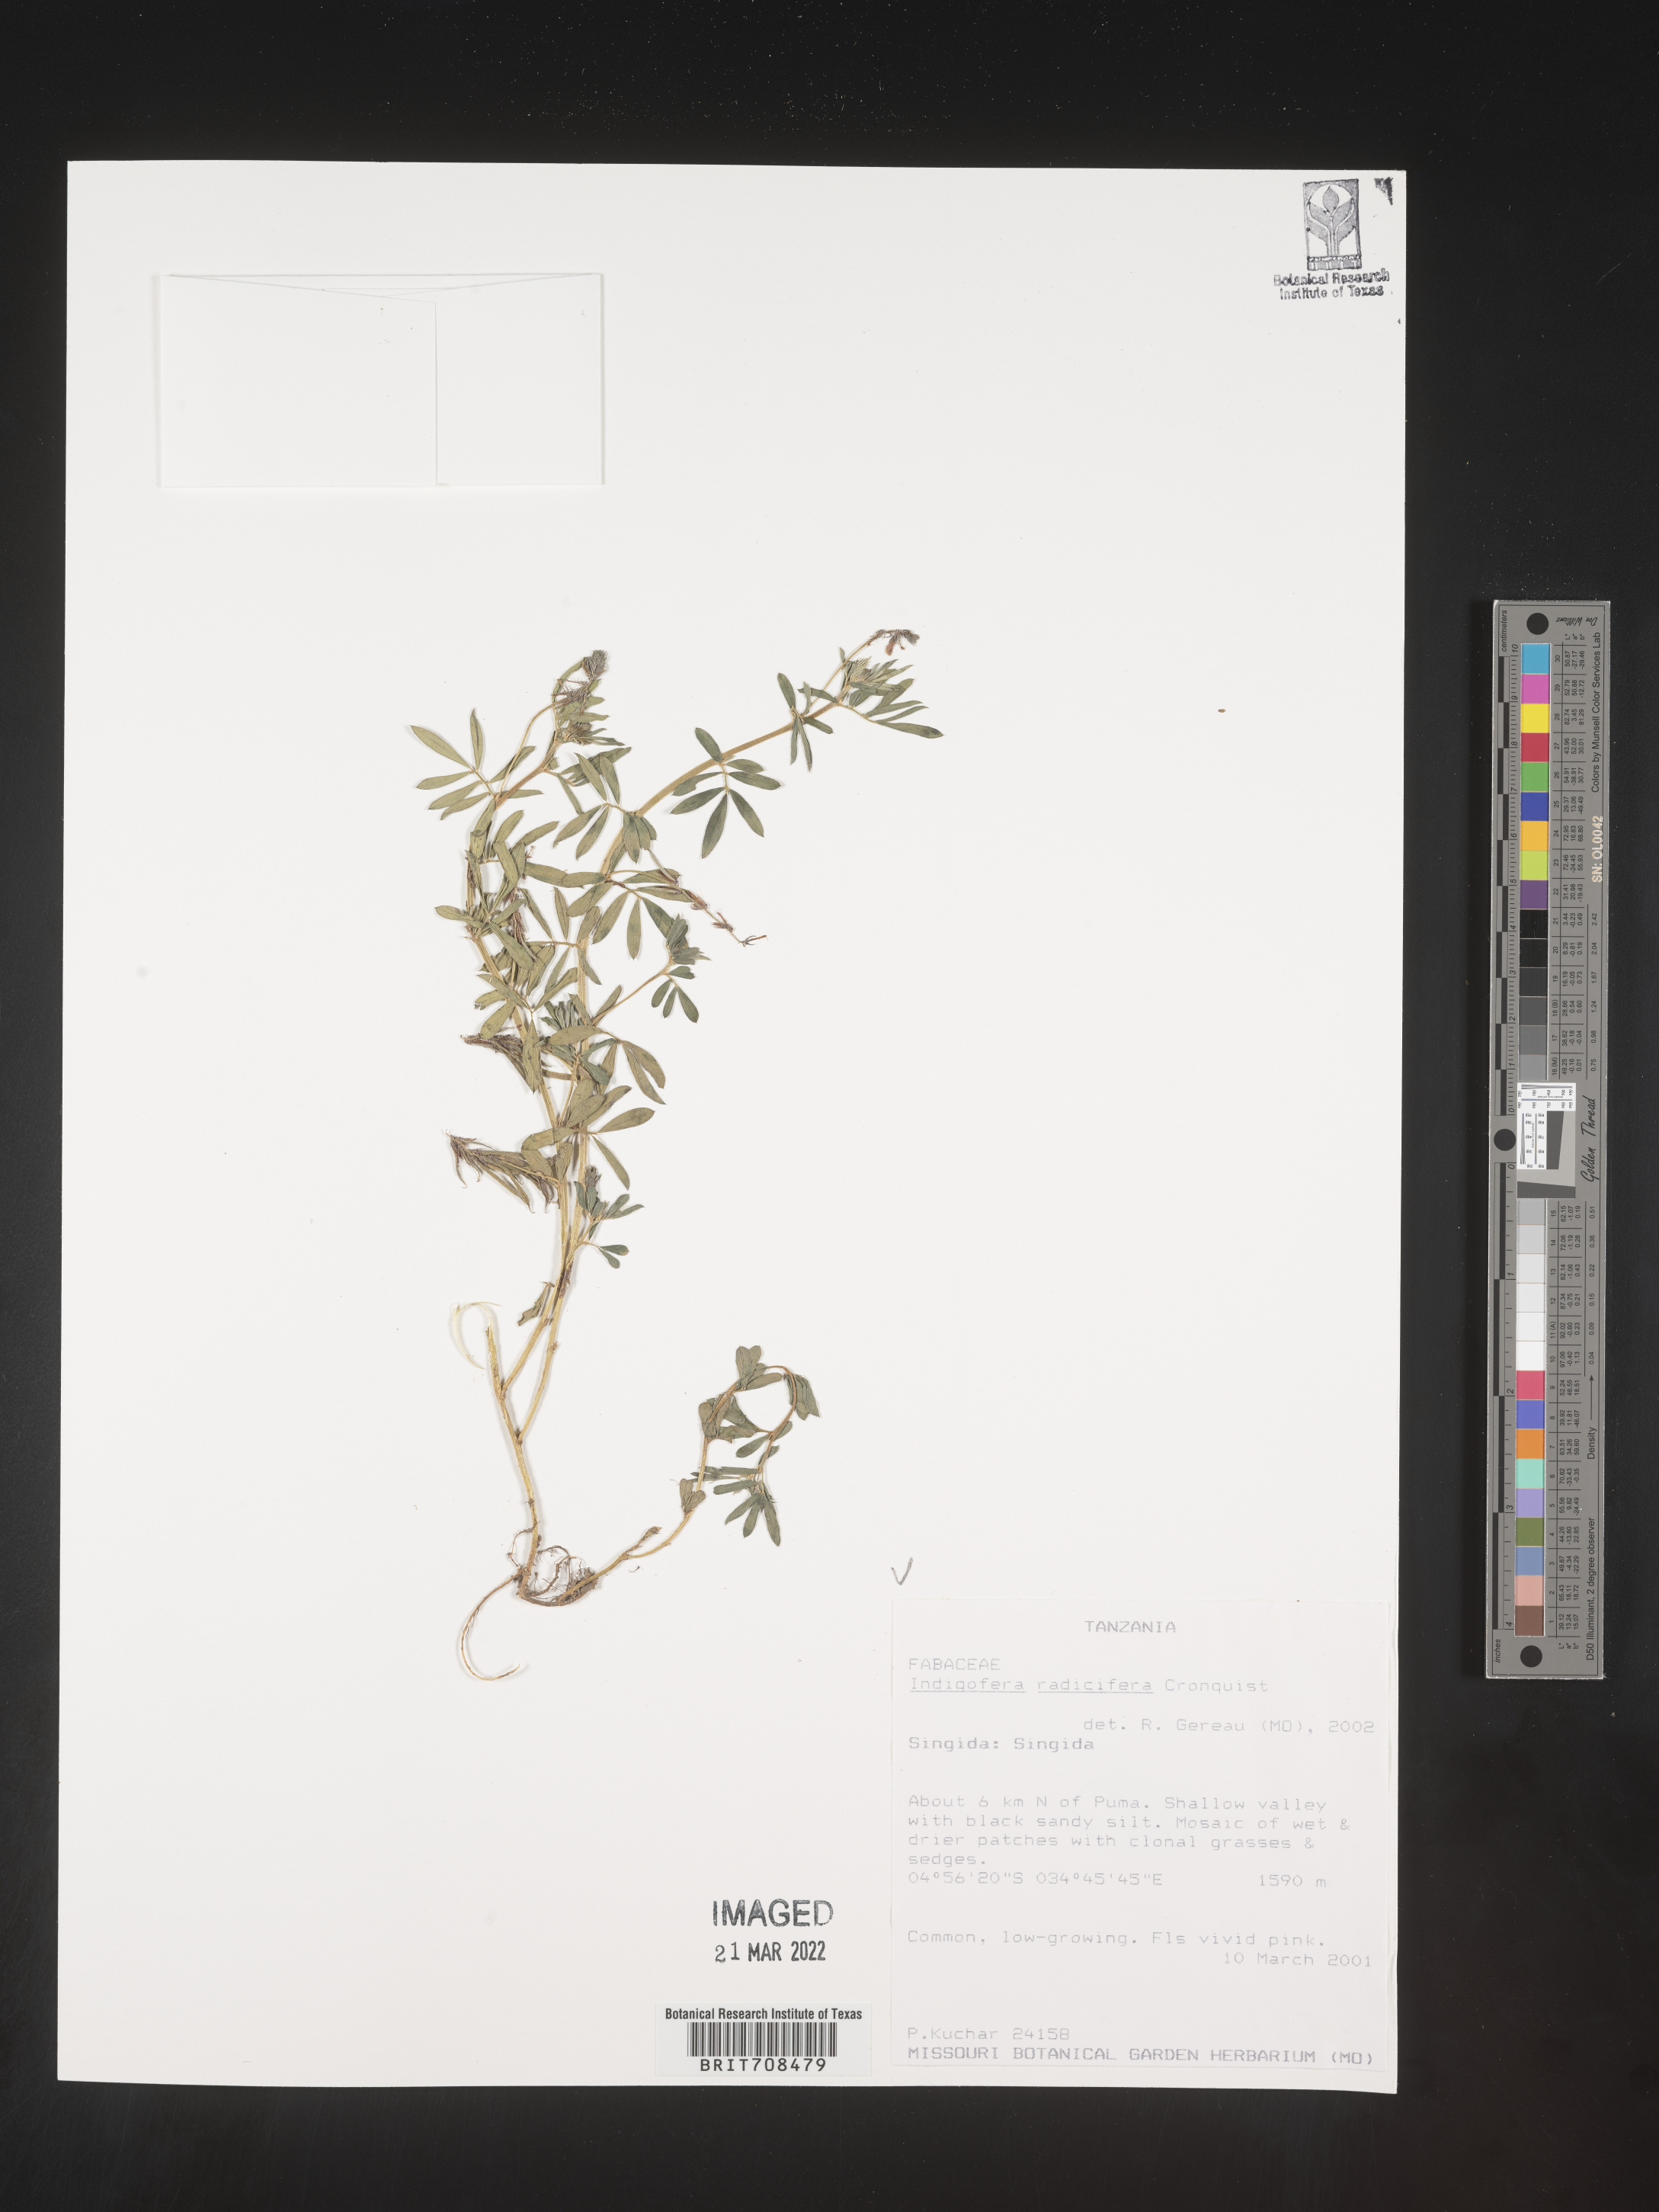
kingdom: Plantae
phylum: Tracheophyta
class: Magnoliopsida
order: Fabales
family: Fabaceae
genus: Indigofera
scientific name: Indigofera
